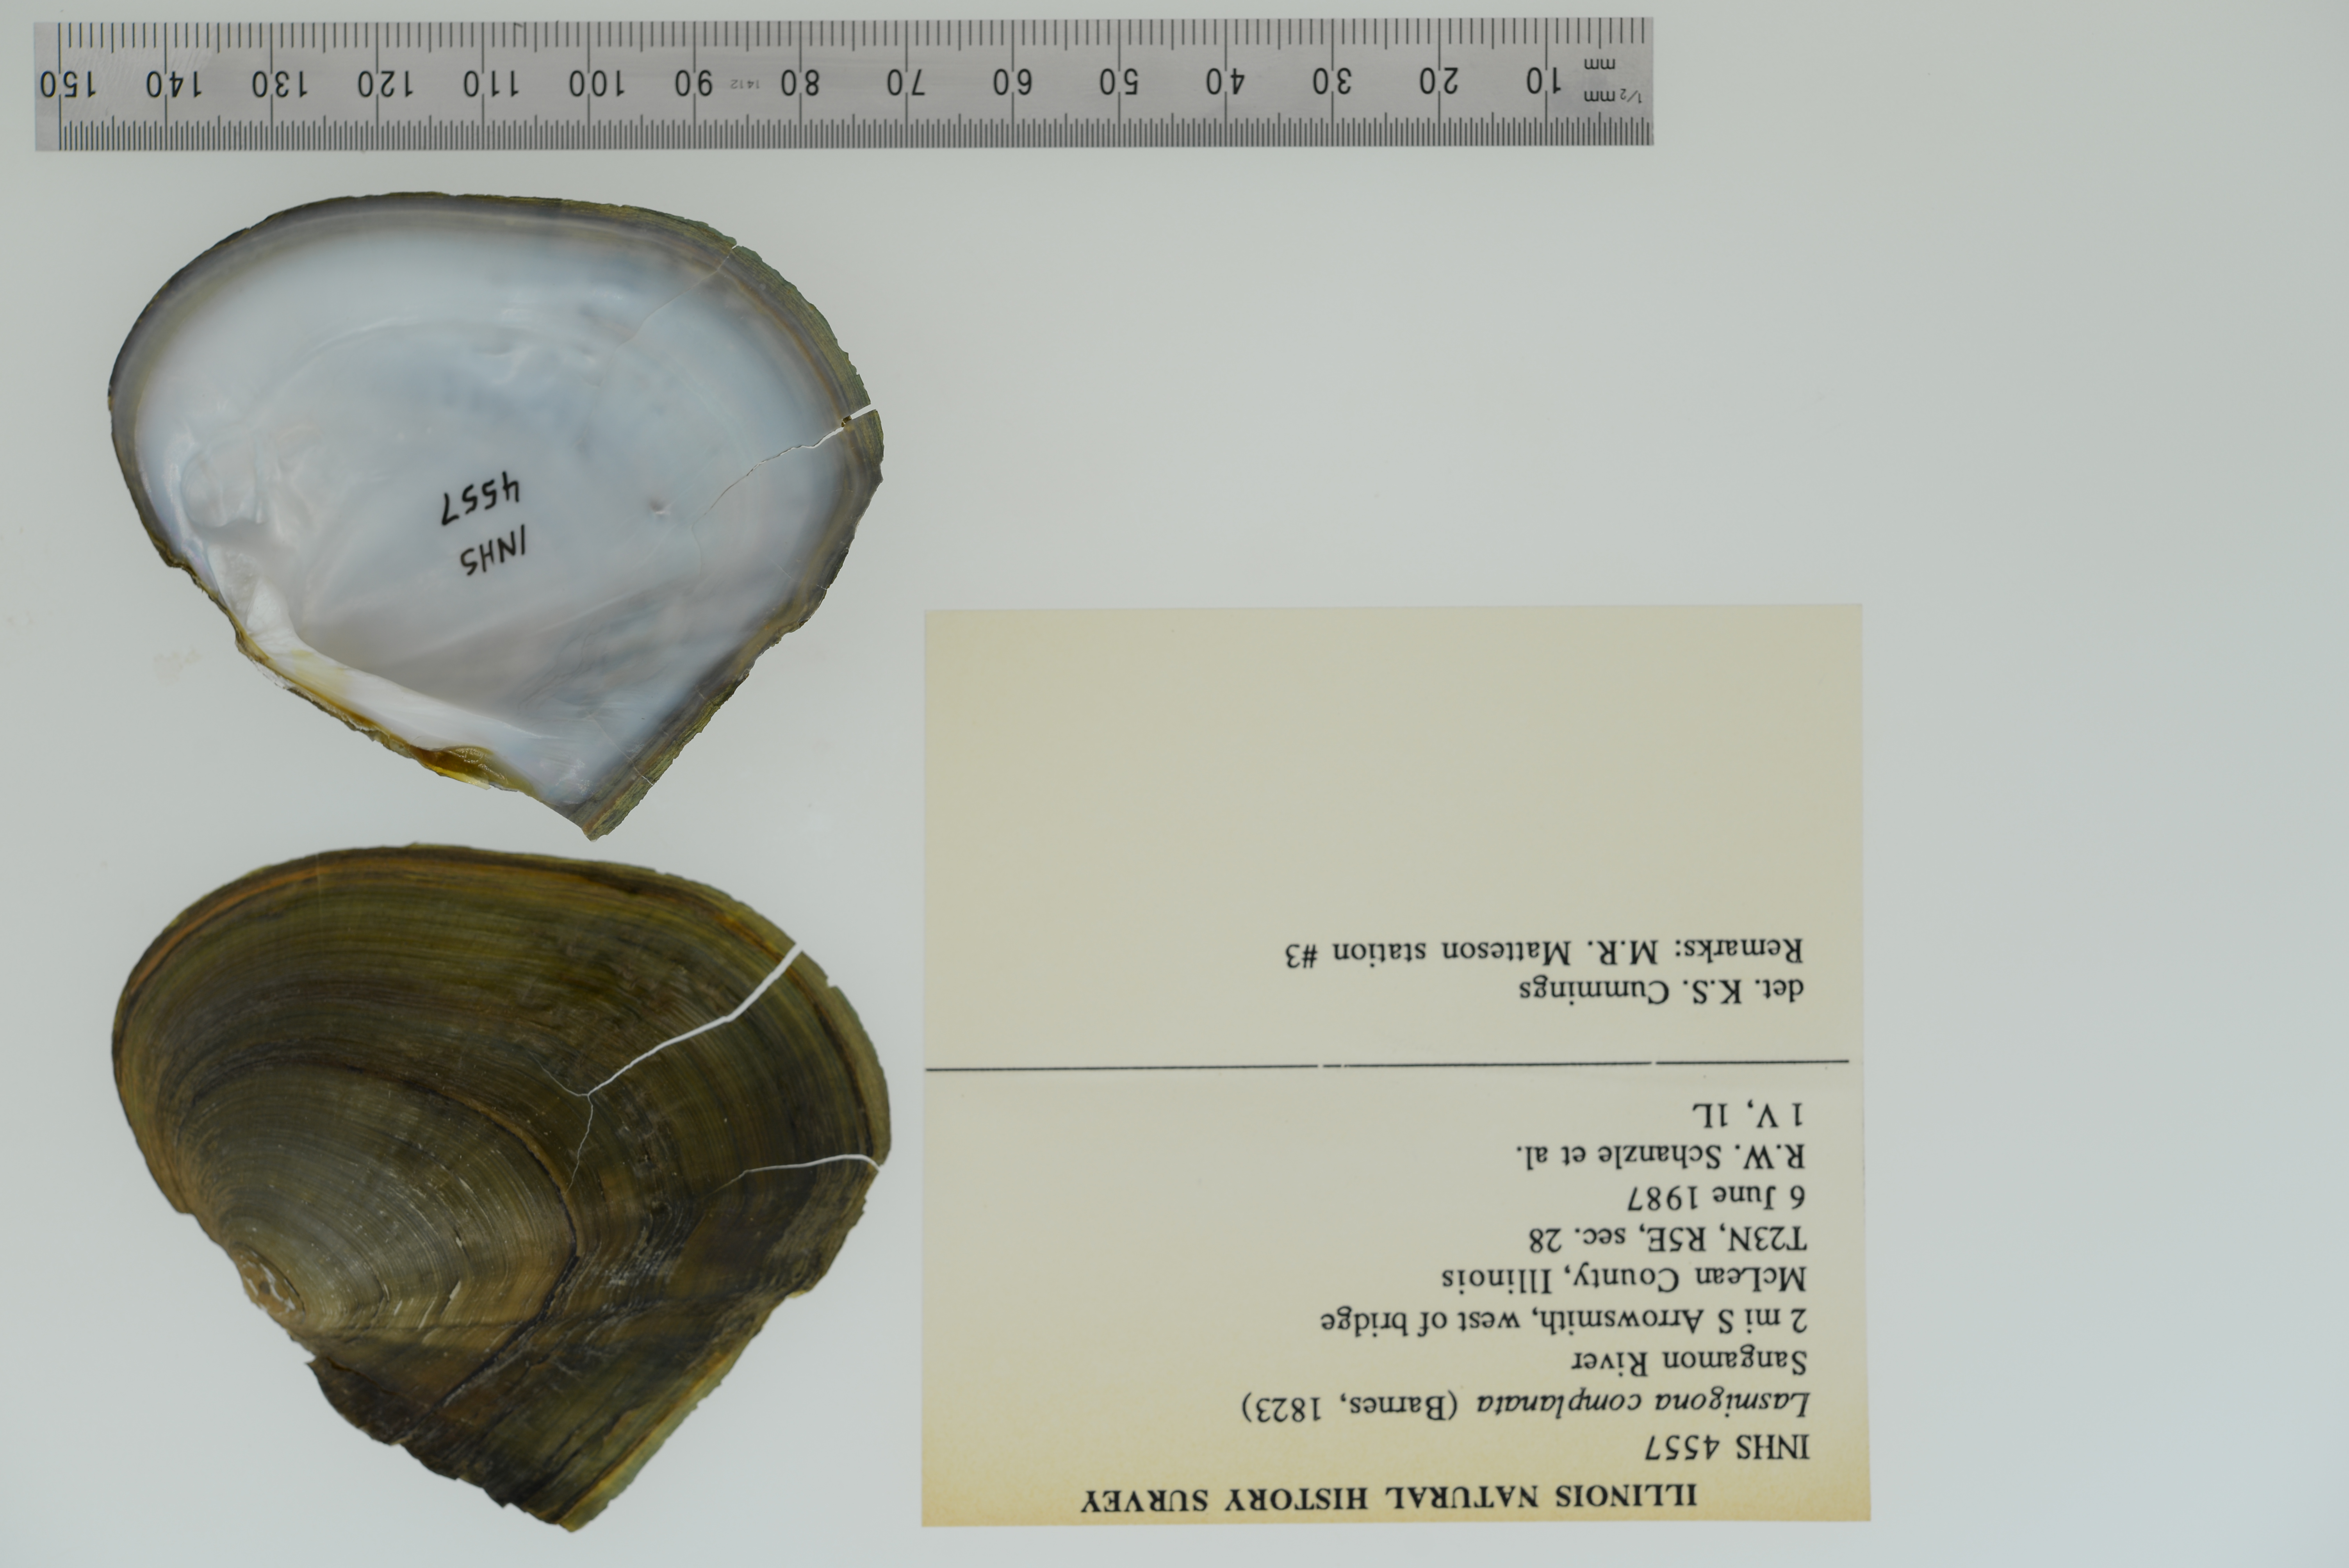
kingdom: Animalia
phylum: Mollusca
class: Bivalvia
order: Unionida
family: Unionidae
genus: Lasmigona
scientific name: Lasmigona complanata
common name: White heelsplitter
